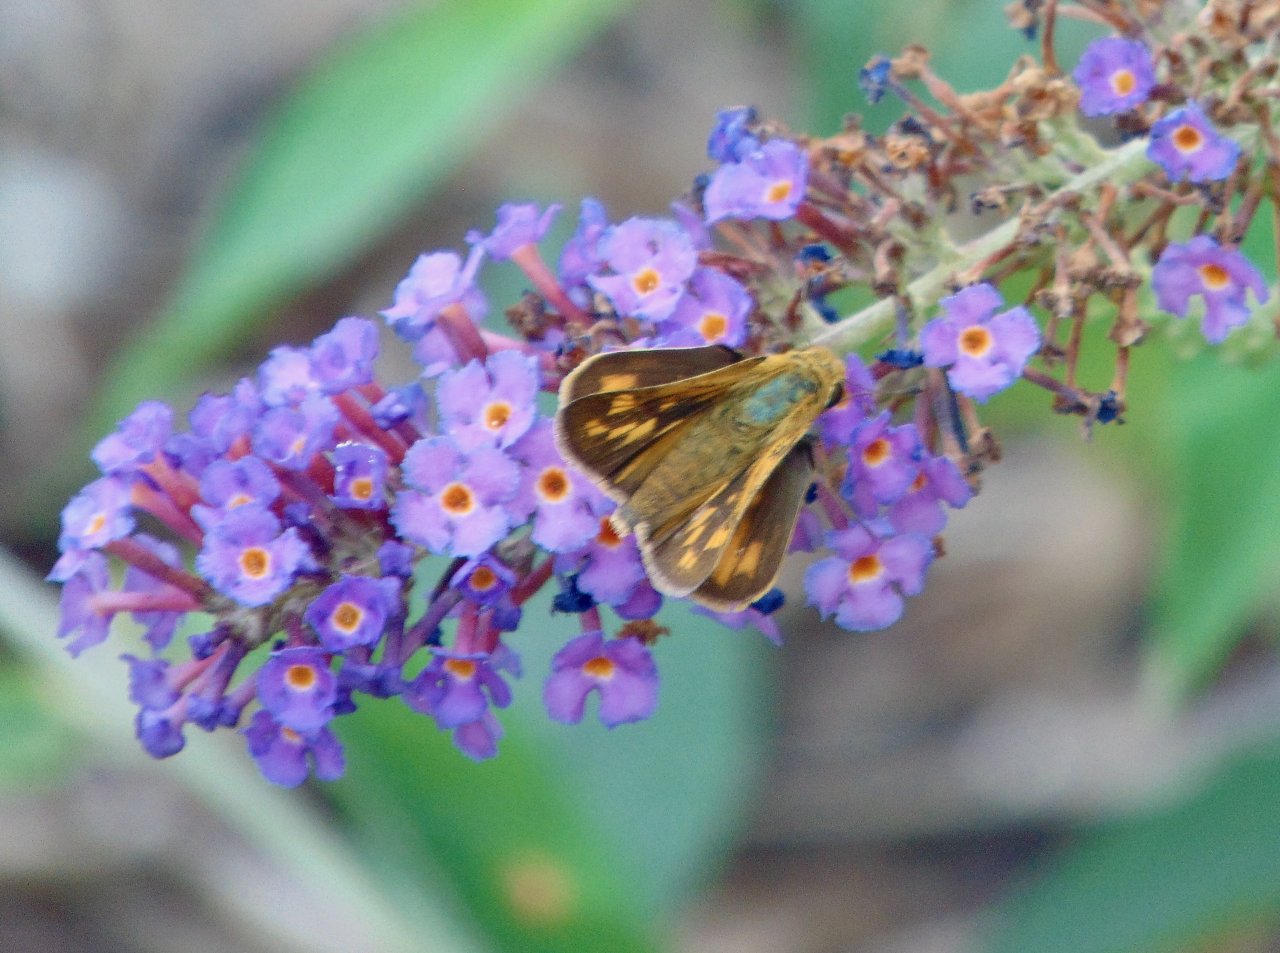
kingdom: Animalia
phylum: Arthropoda
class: Insecta
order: Lepidoptera
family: Hesperiidae
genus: Polites
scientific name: Polites coras
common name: Peck's Skipper
